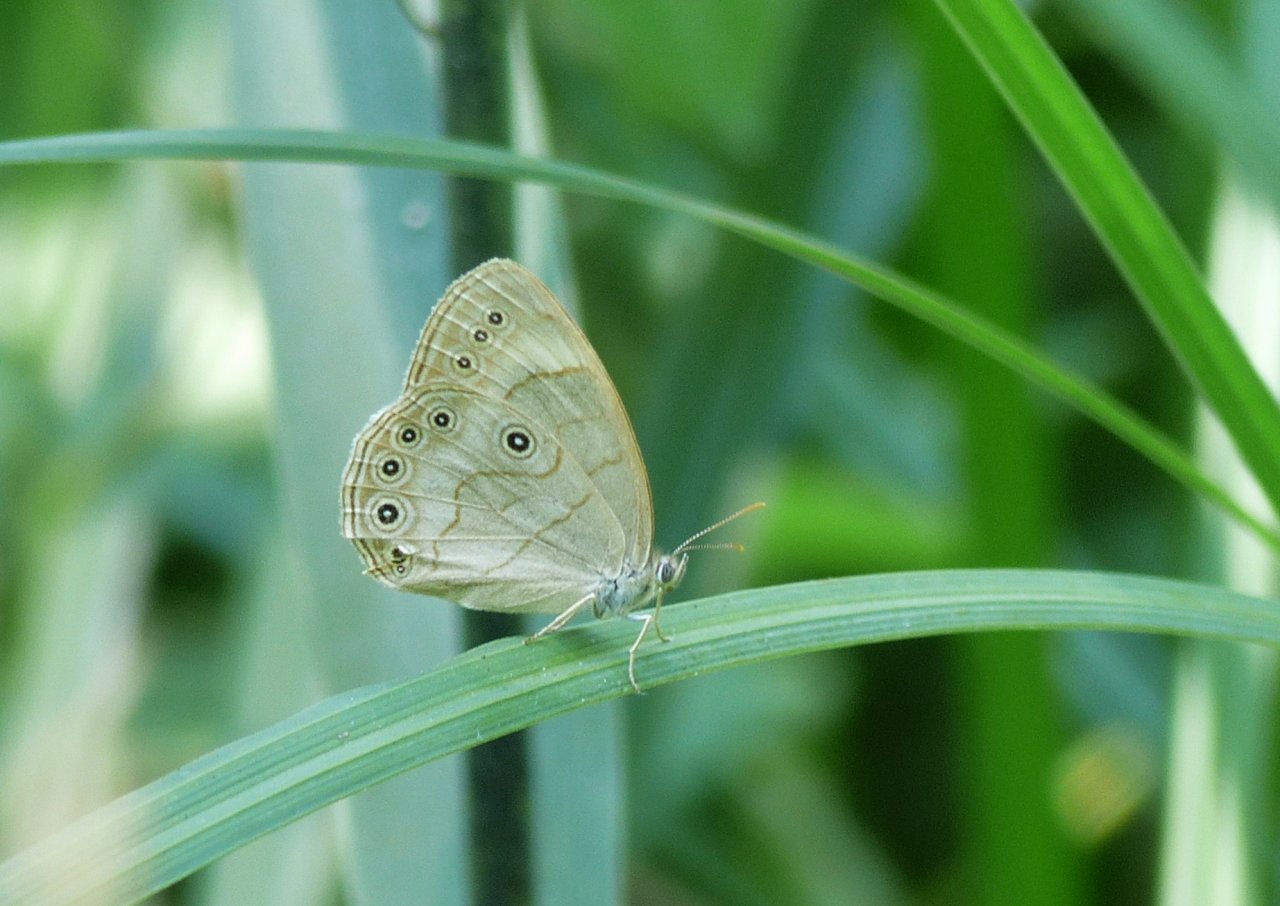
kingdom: Animalia
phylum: Arthropoda
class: Insecta
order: Lepidoptera
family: Nymphalidae
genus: Lethe
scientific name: Lethe eurydice
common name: Appalachian Eyed Brown
